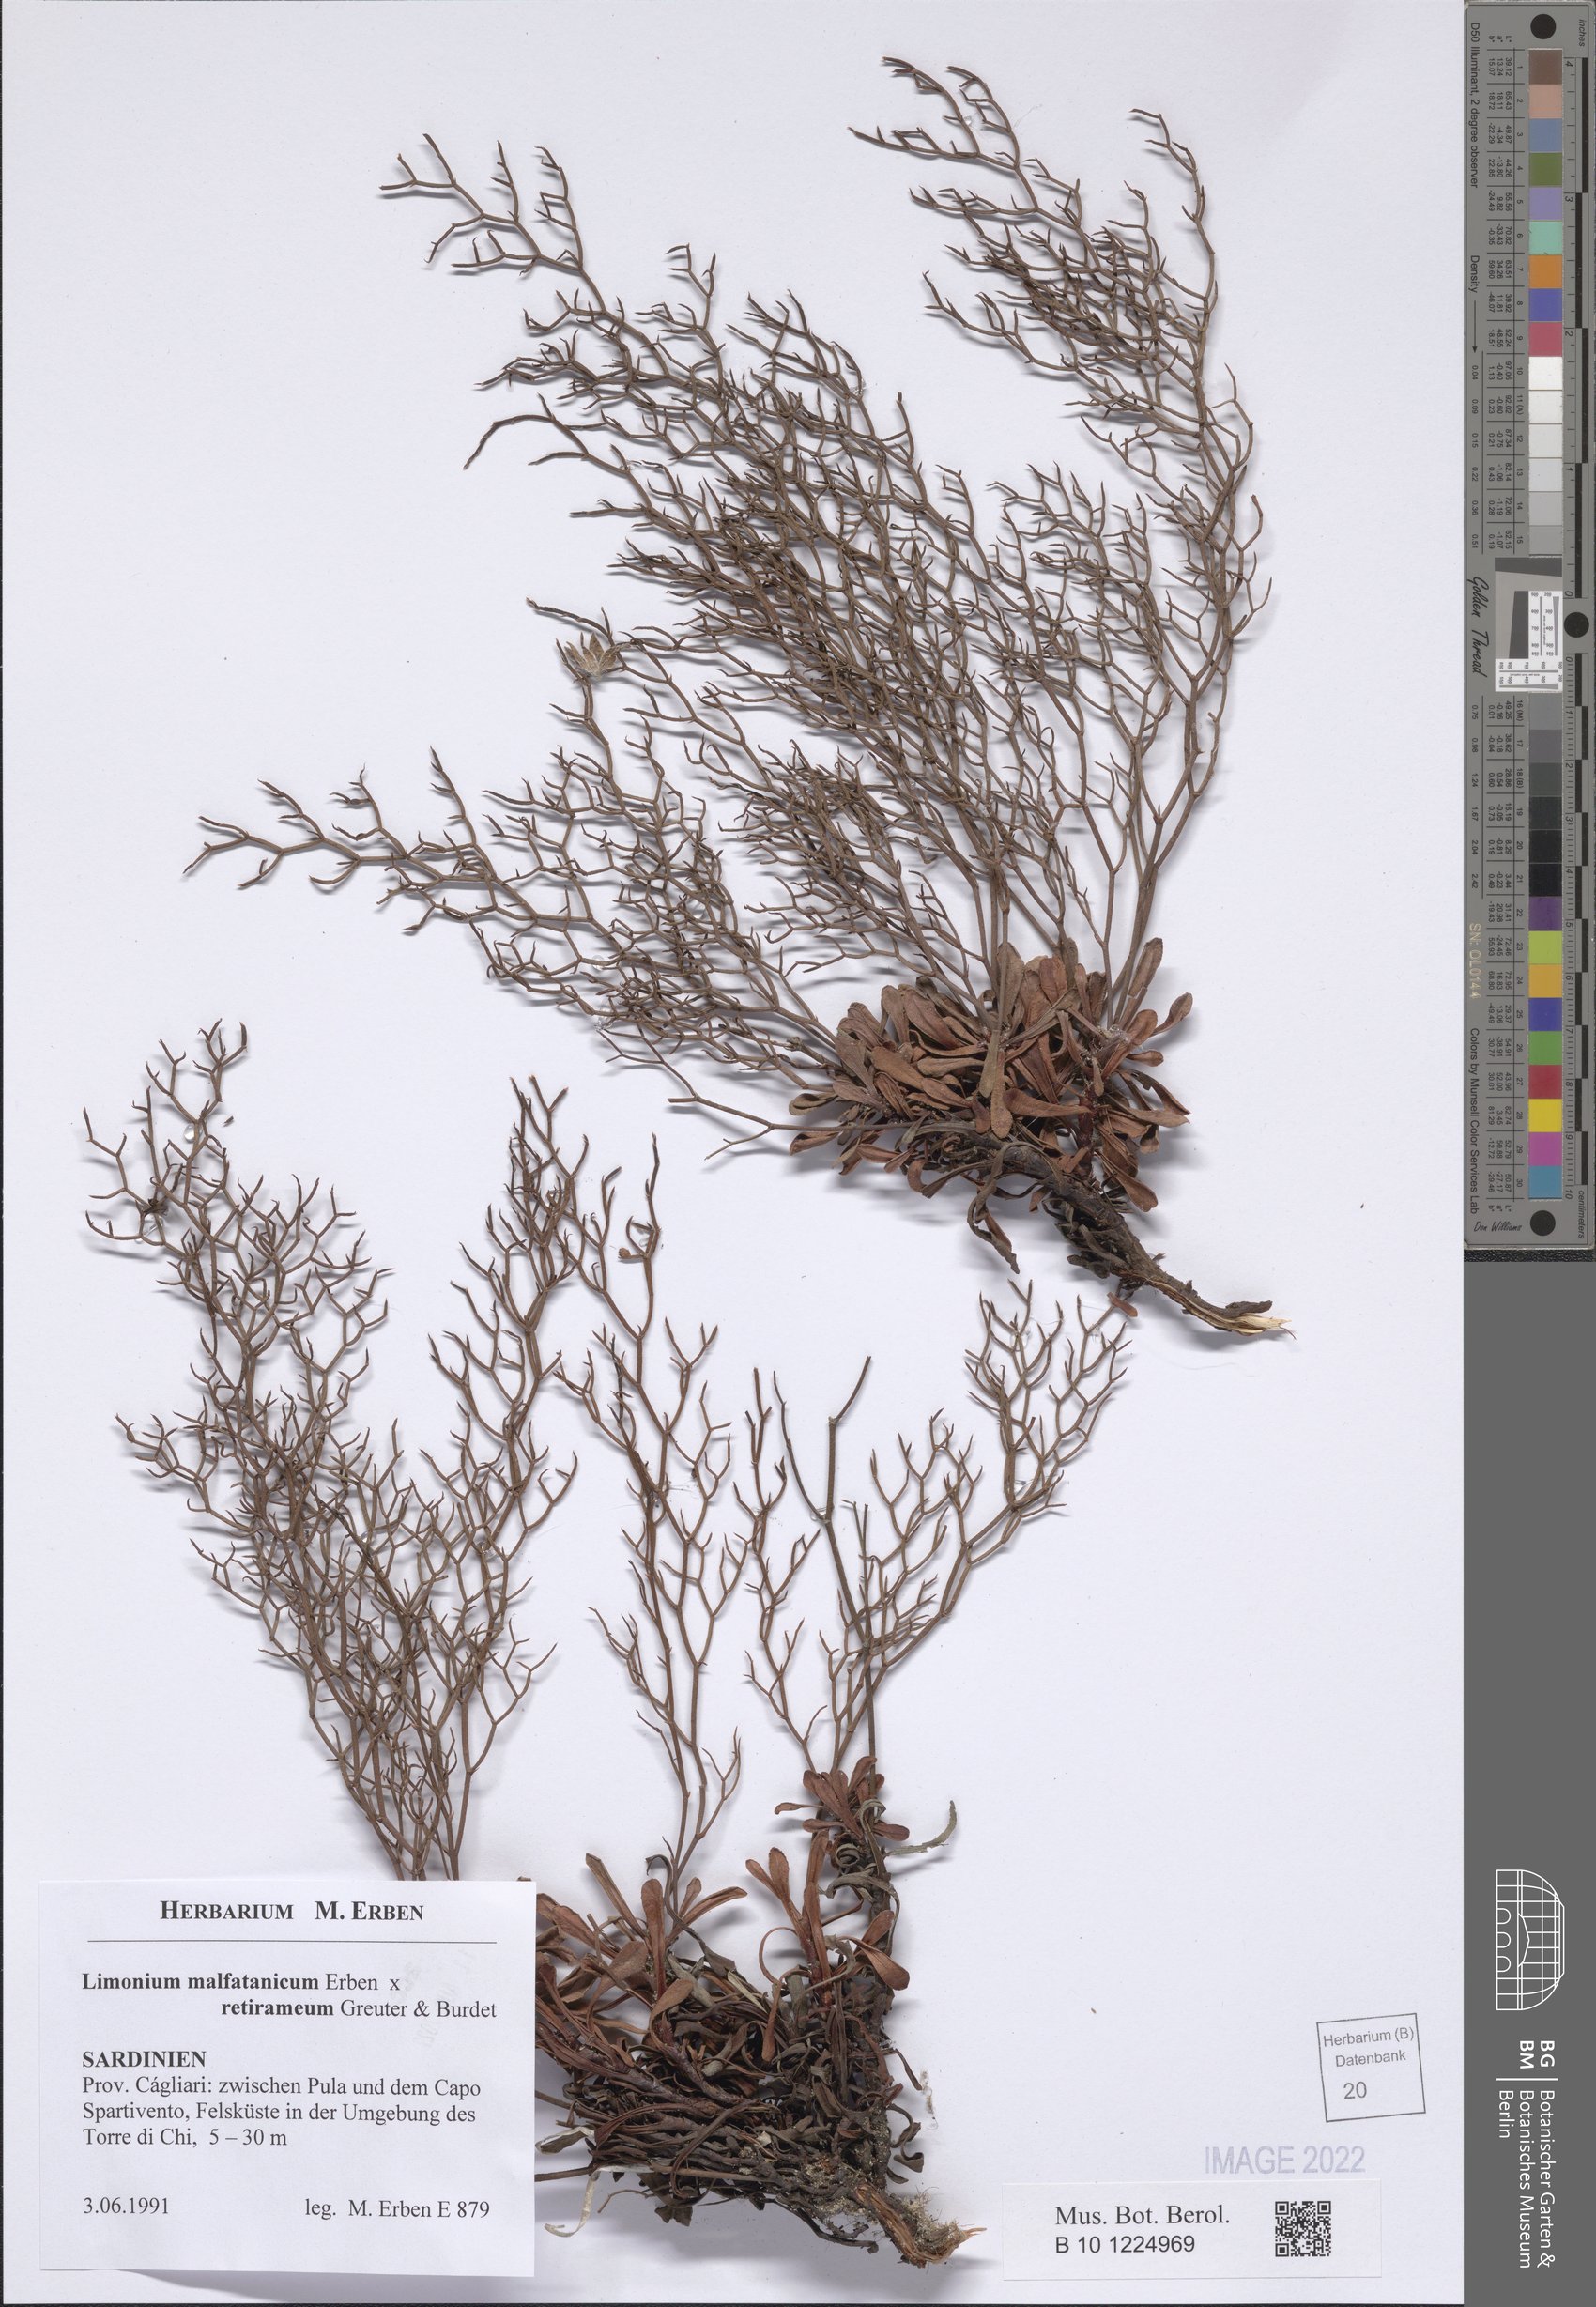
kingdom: Plantae
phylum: Tracheophyta
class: Magnoliopsida
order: Caryophyllales
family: Plumbaginaceae
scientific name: Plumbaginaceae
